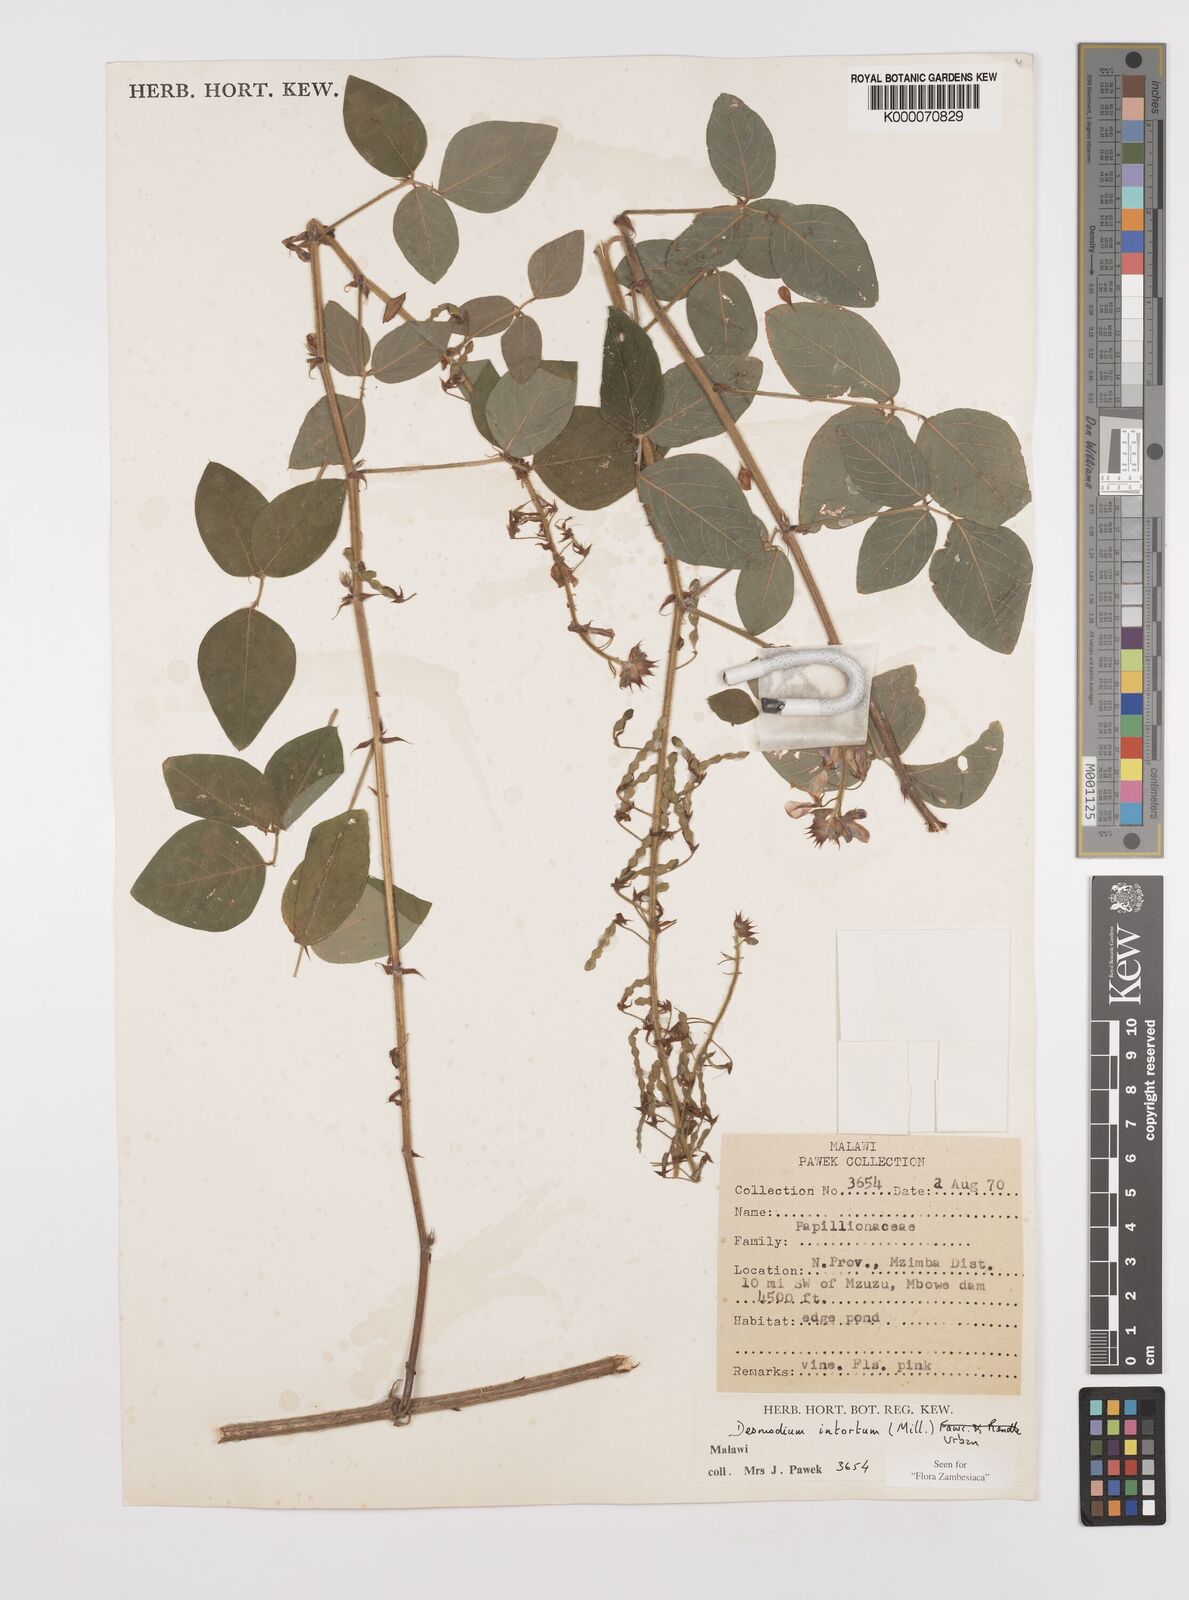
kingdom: Plantae
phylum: Tracheophyta
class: Magnoliopsida
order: Fabales
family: Fabaceae
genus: Desmodium
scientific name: Desmodium intortum
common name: Greenleaf ticktrefoil
